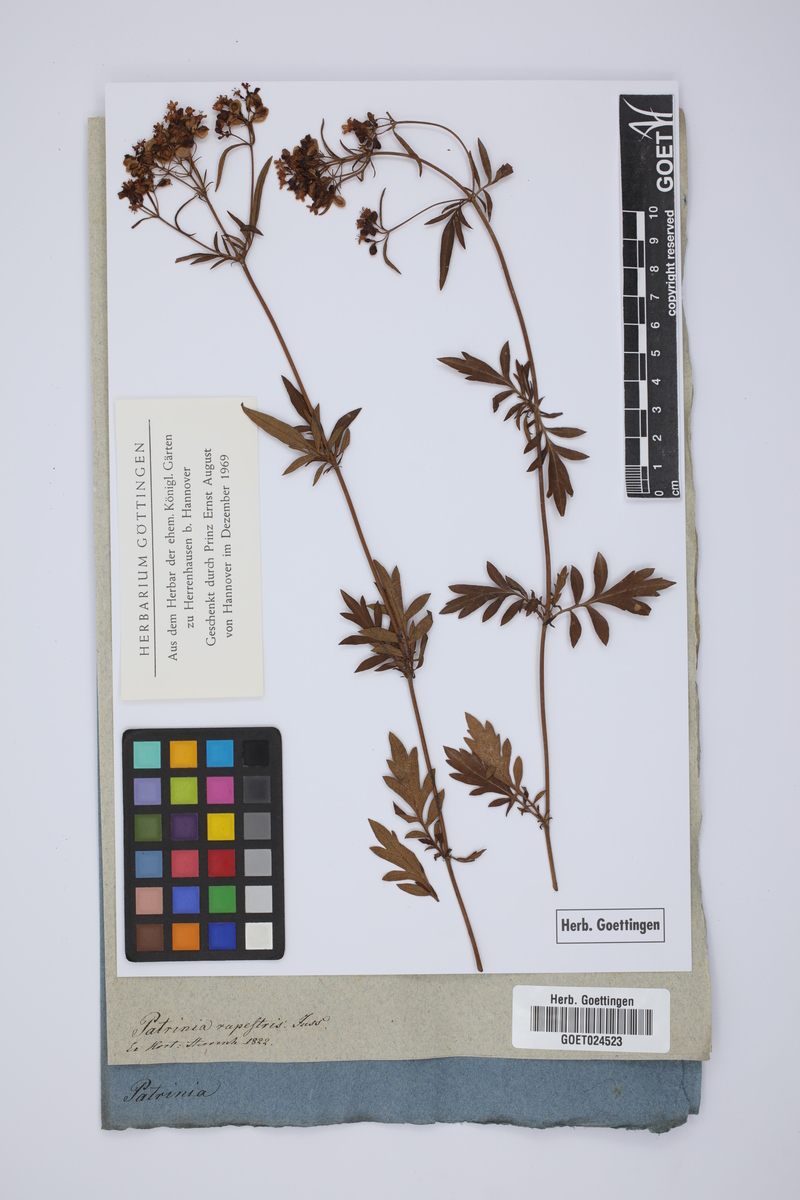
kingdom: Plantae
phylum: Tracheophyta
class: Magnoliopsida
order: Dipsacales
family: Caprifoliaceae
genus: Patrinia
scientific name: Patrinia rupestris
